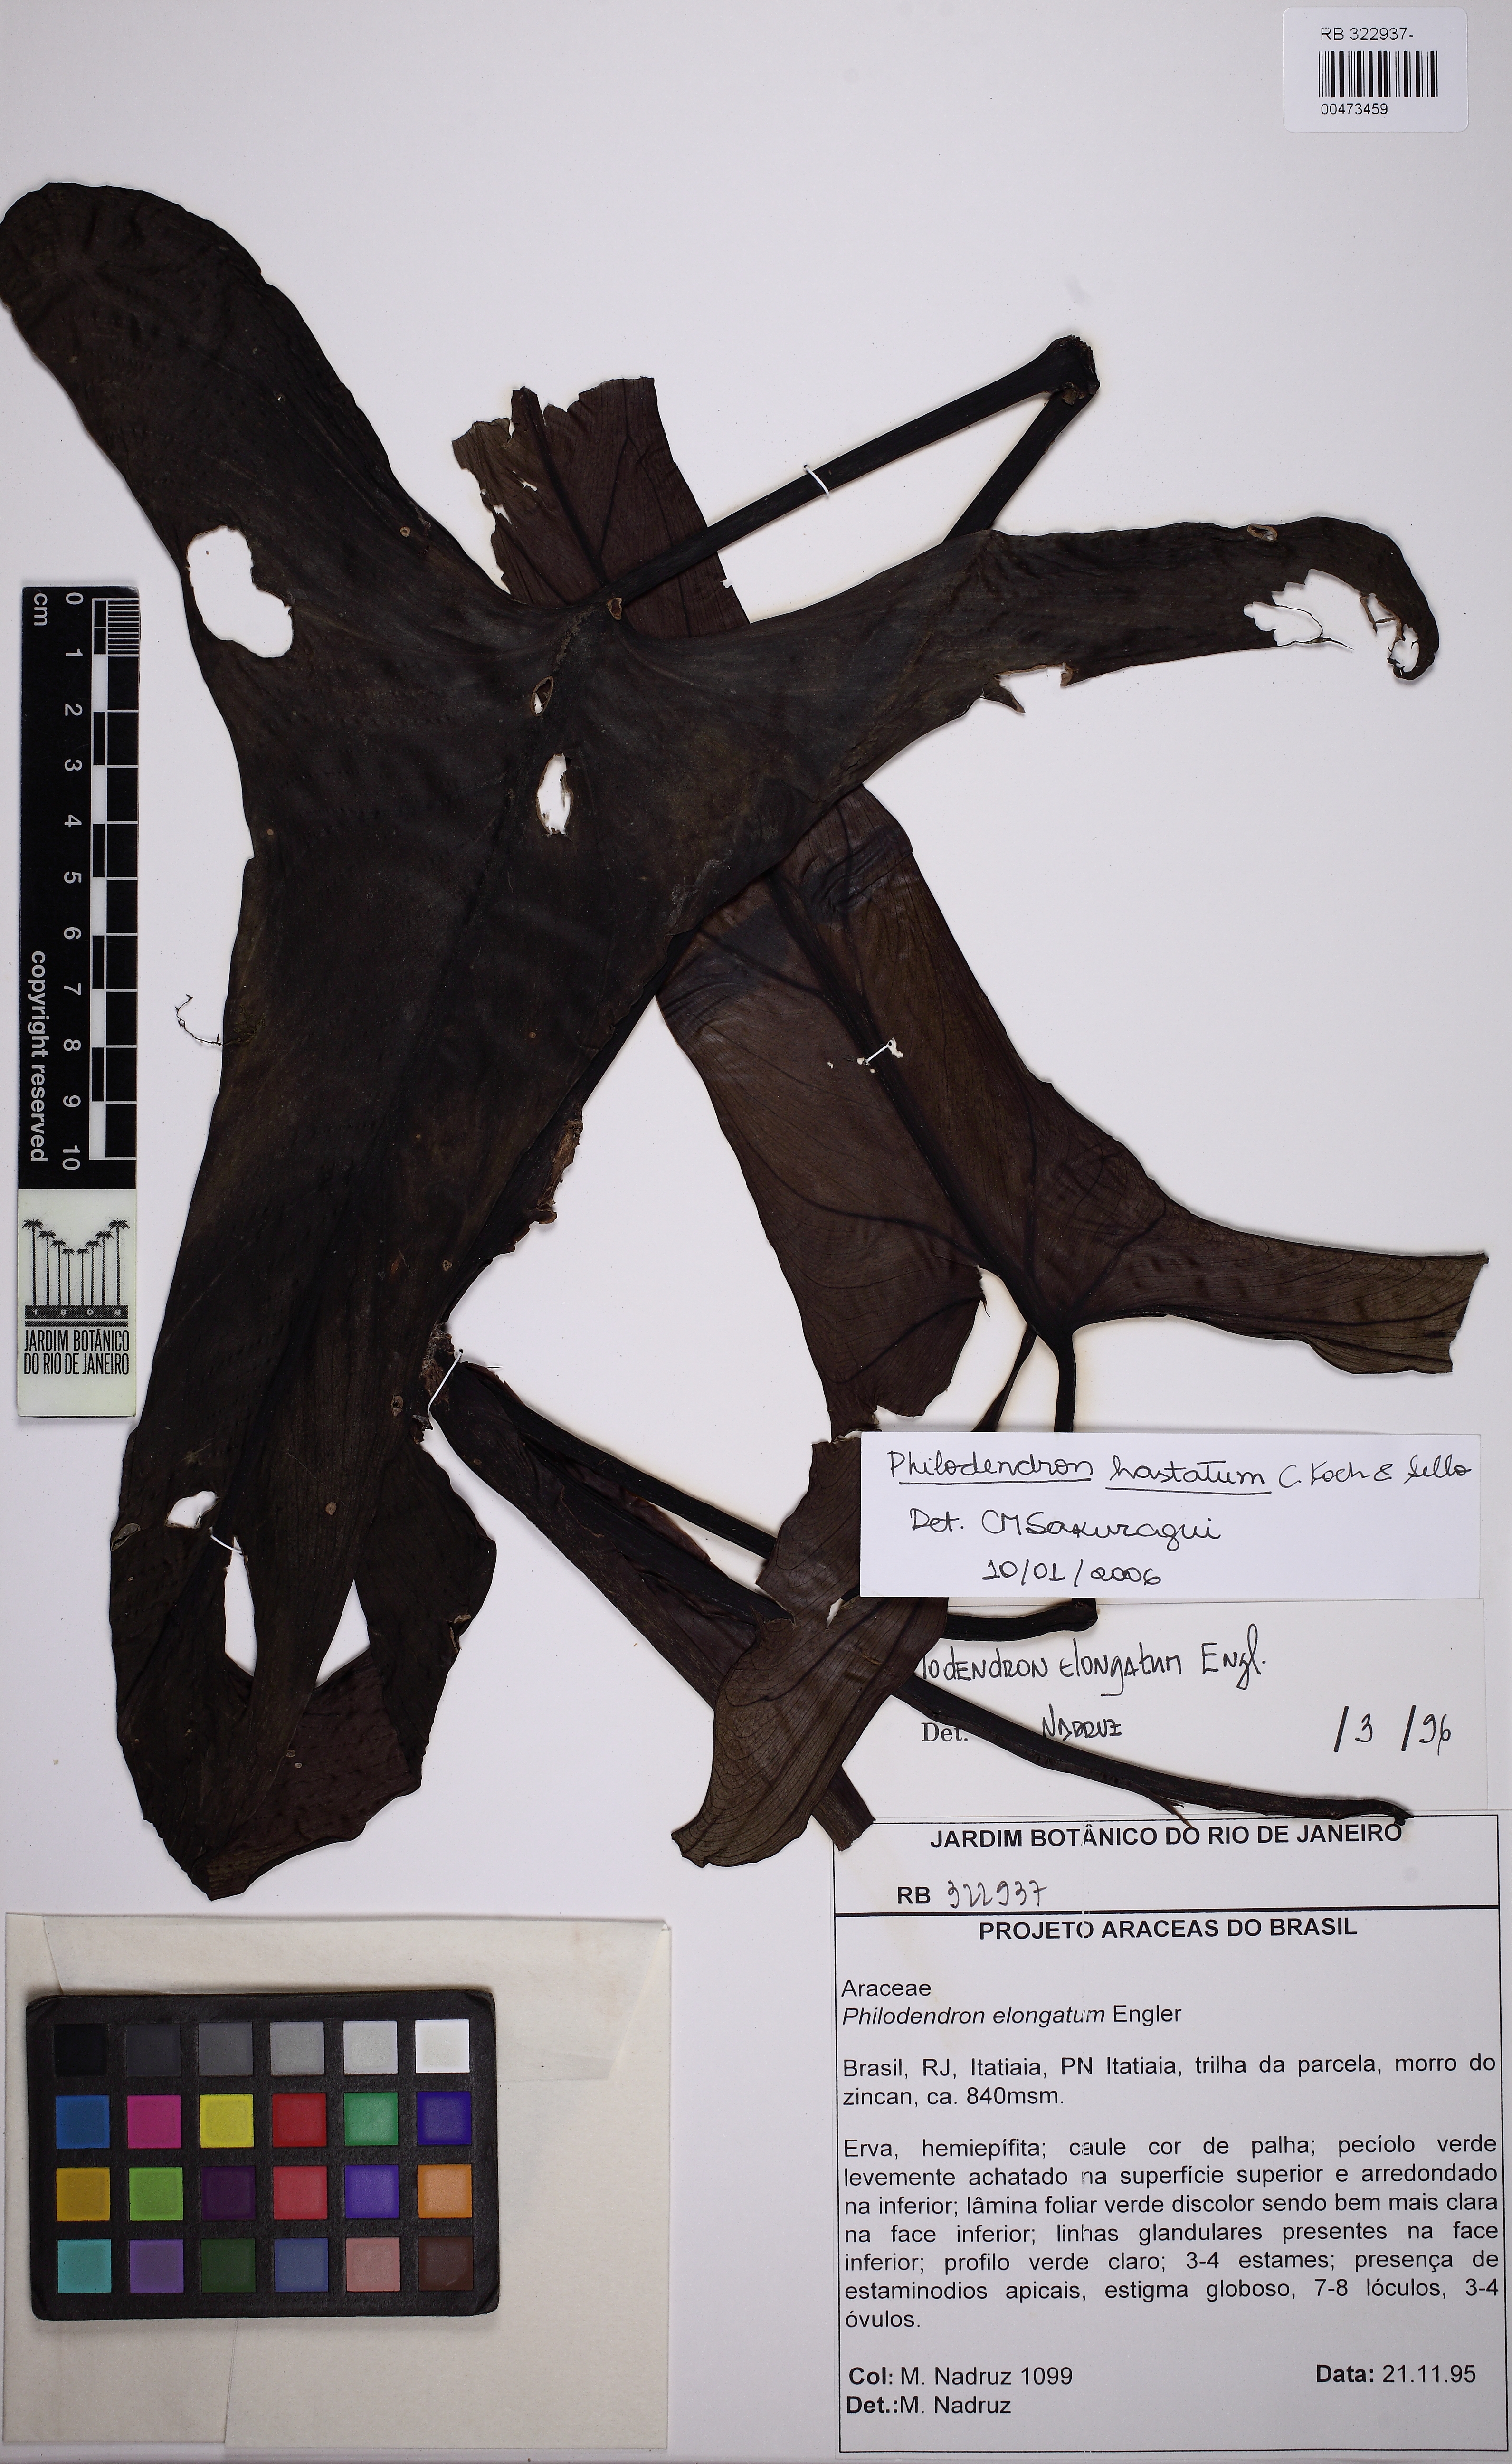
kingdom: Plantae
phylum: Tracheophyta
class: Liliopsida
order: Alismatales
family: Araceae
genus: Philodendron
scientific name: Philodendron hastatum
